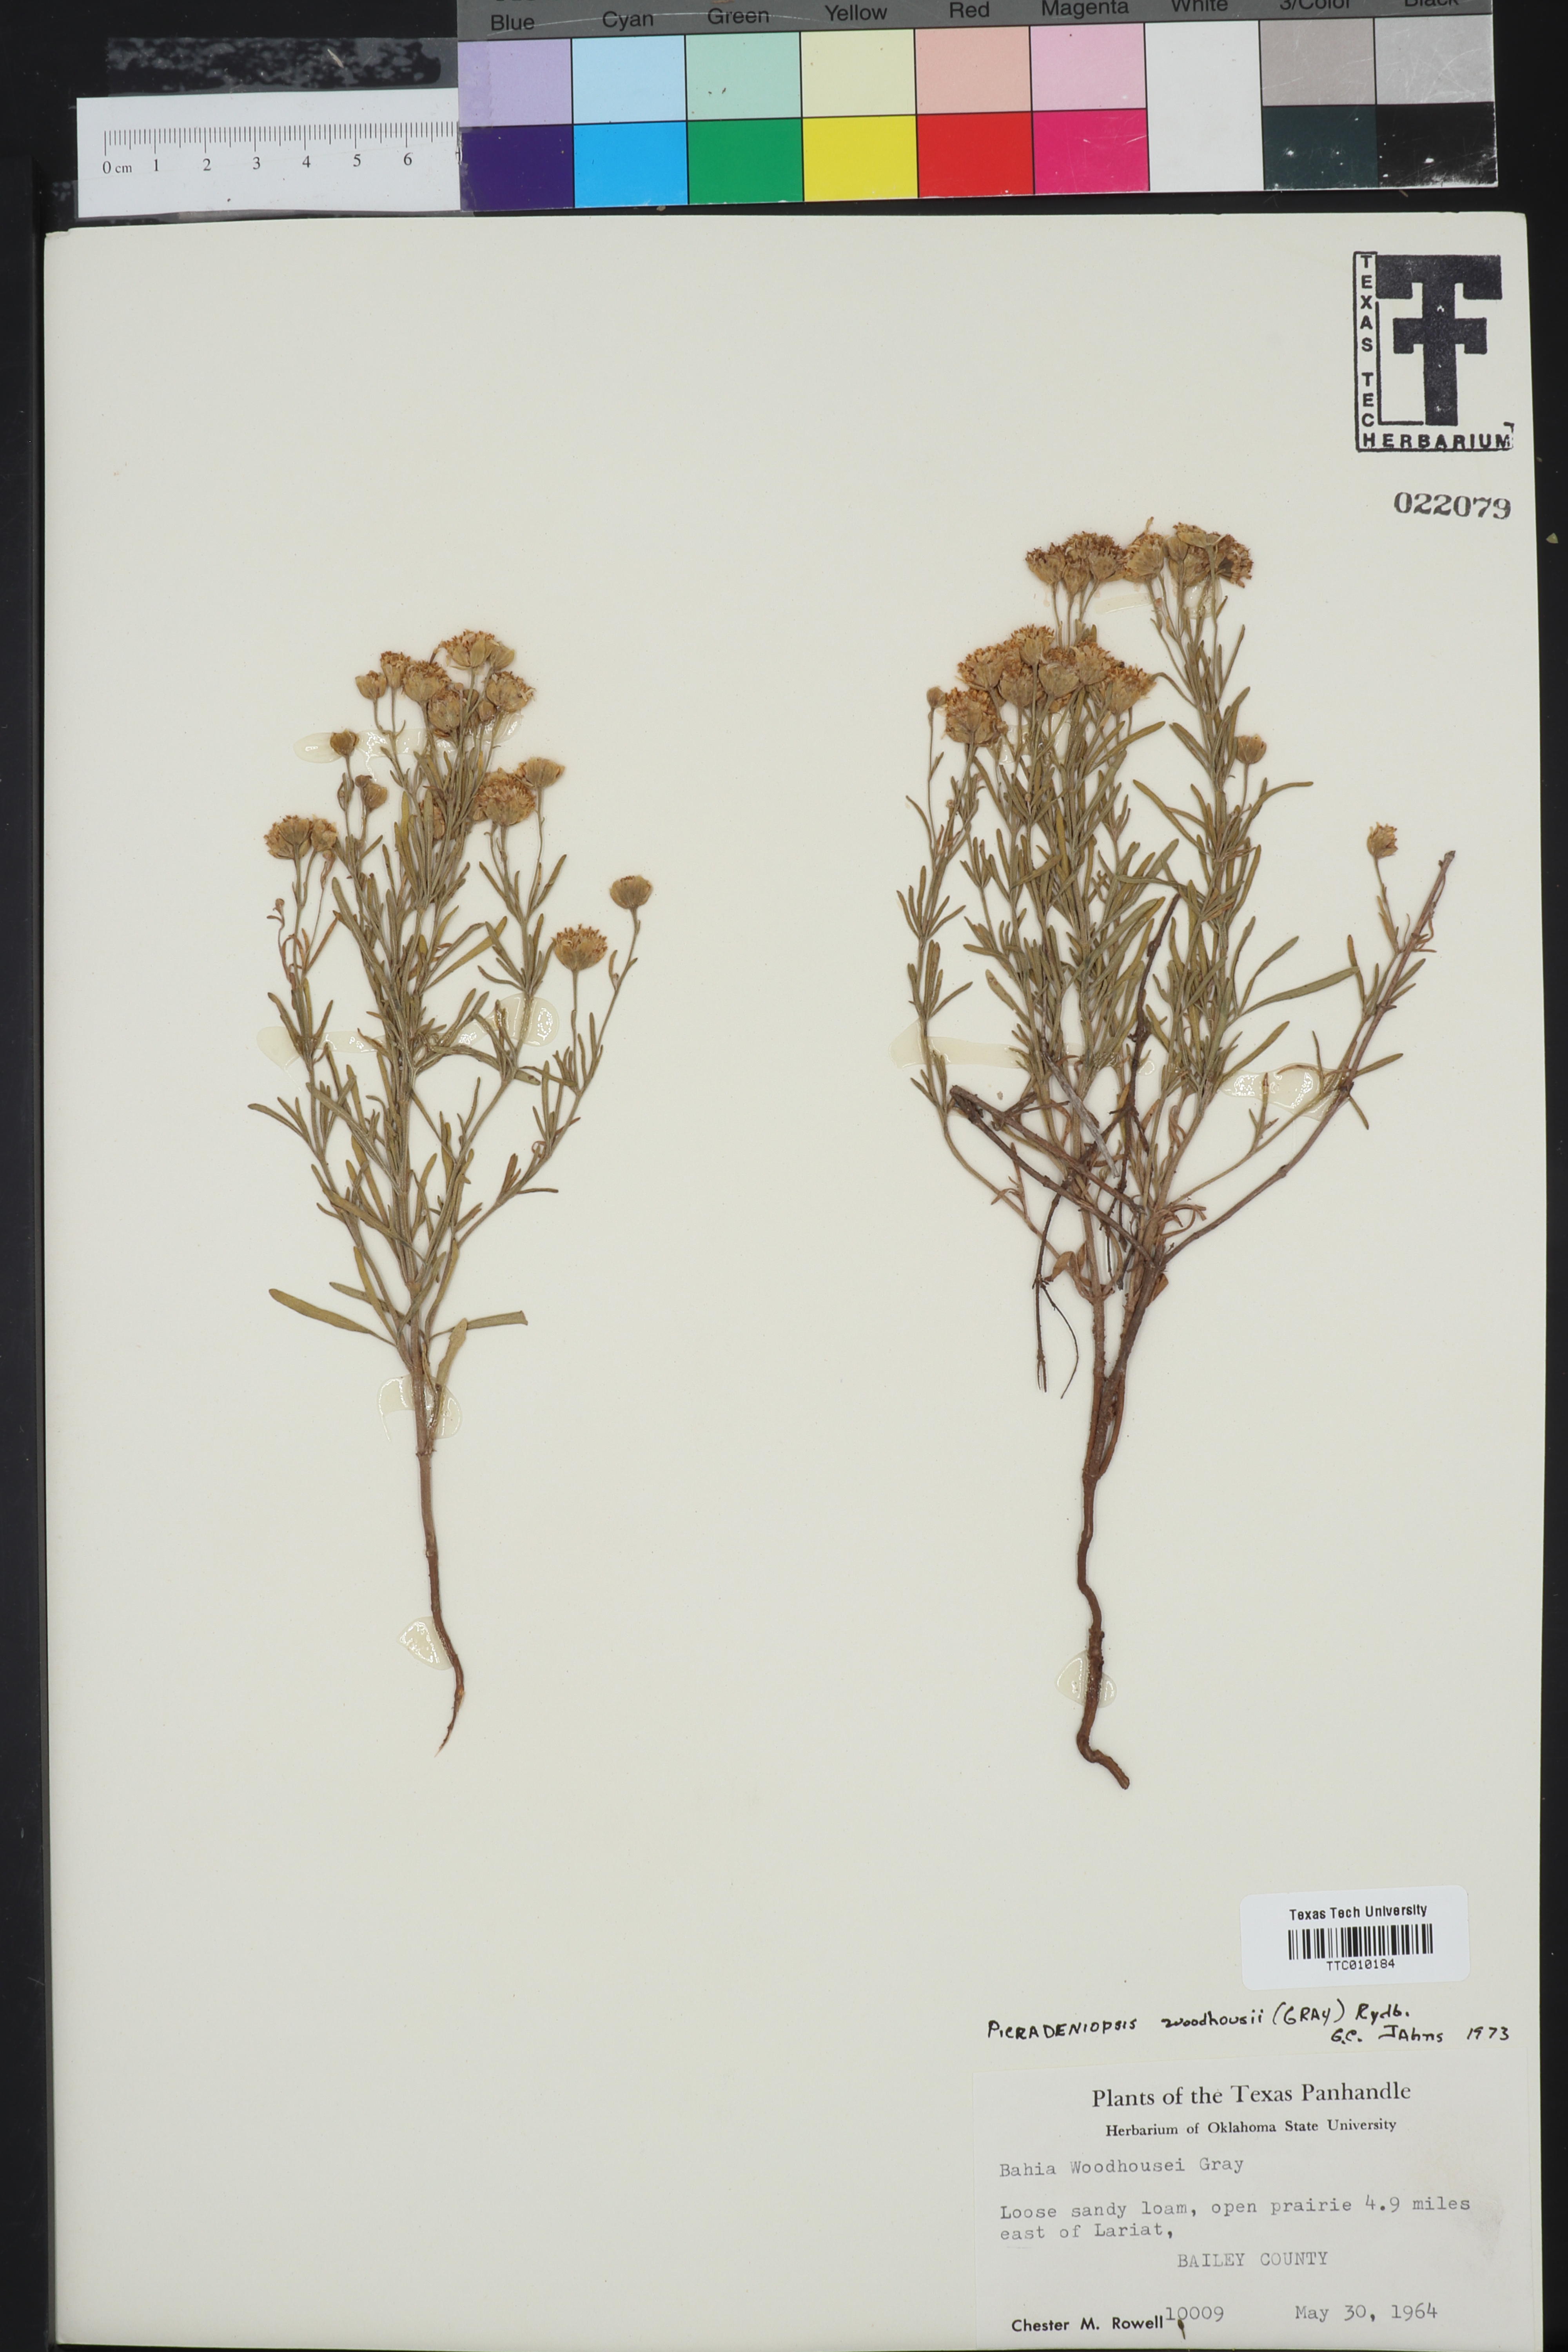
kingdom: Plantae
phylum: Tracheophyta
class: Magnoliopsida
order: Asterales
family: Asteraceae
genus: Picradeniopsis
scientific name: Picradeniopsis woodhousei
